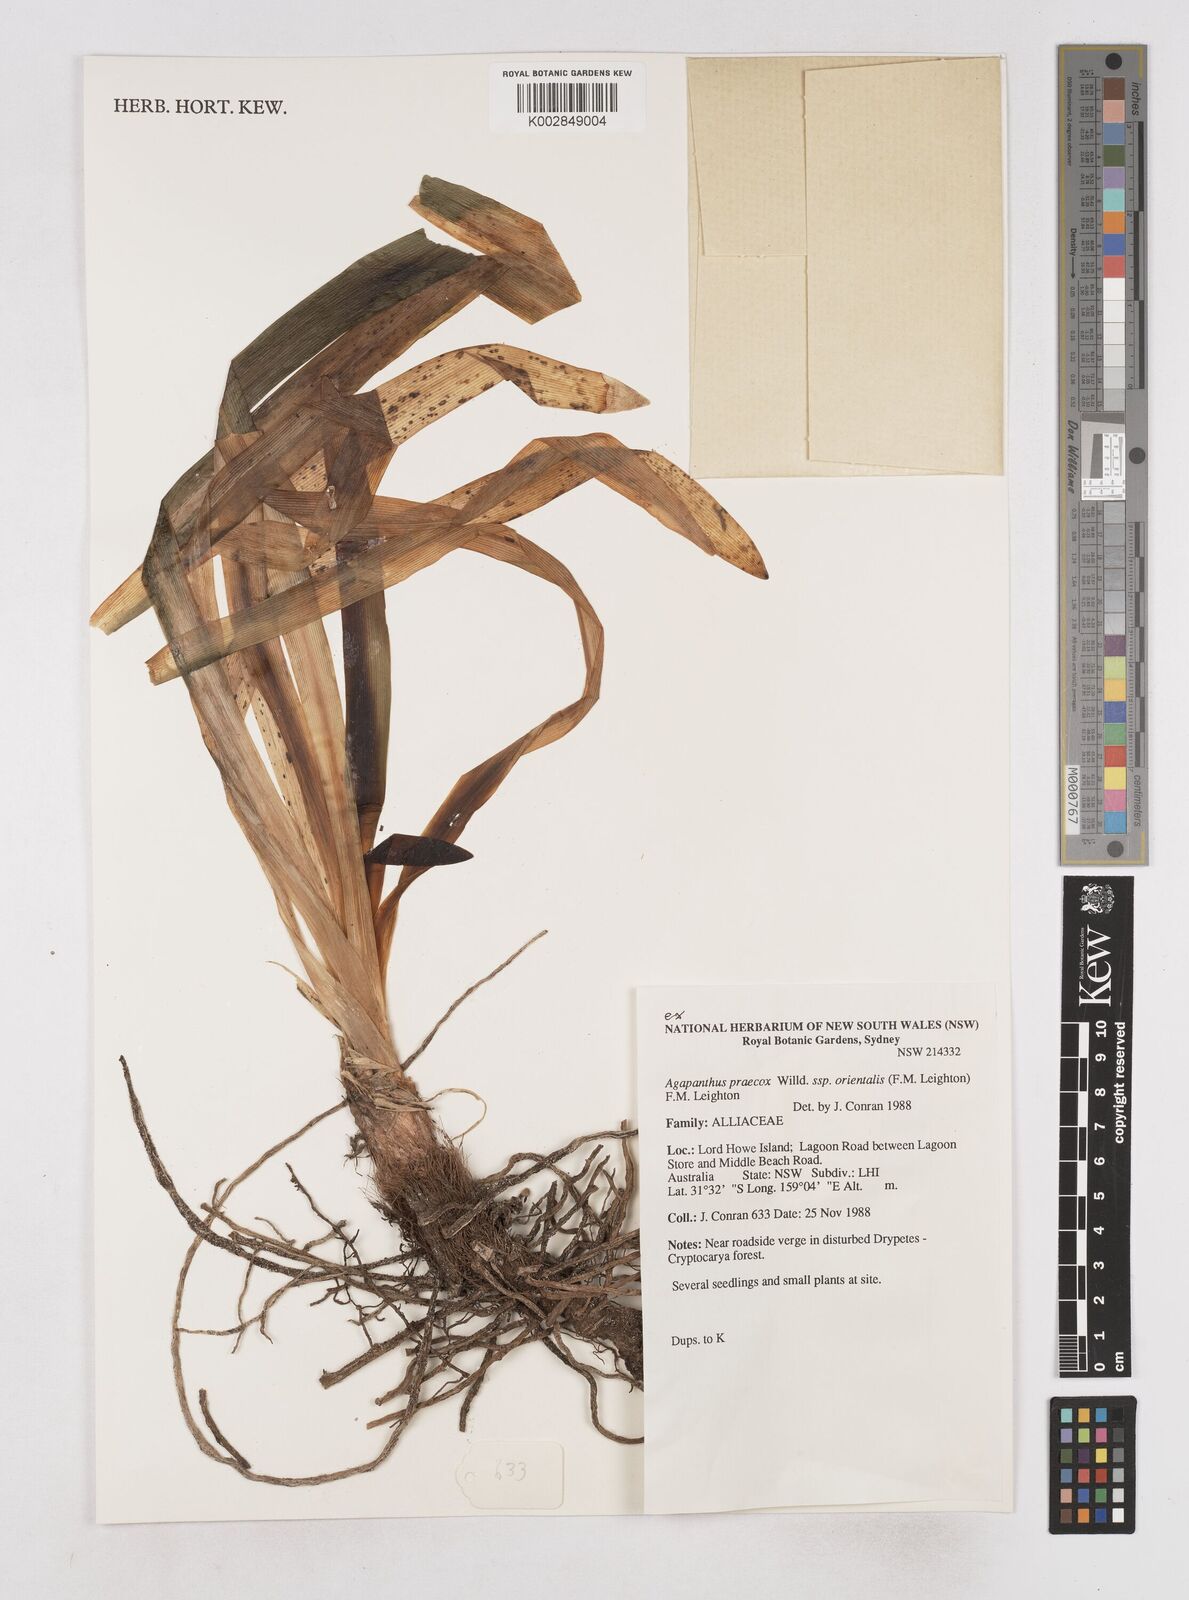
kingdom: Plantae
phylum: Tracheophyta
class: Liliopsida
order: Asparagales
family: Amaryllidaceae
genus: Agapanthus
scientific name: Agapanthus praecox
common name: African-lily
